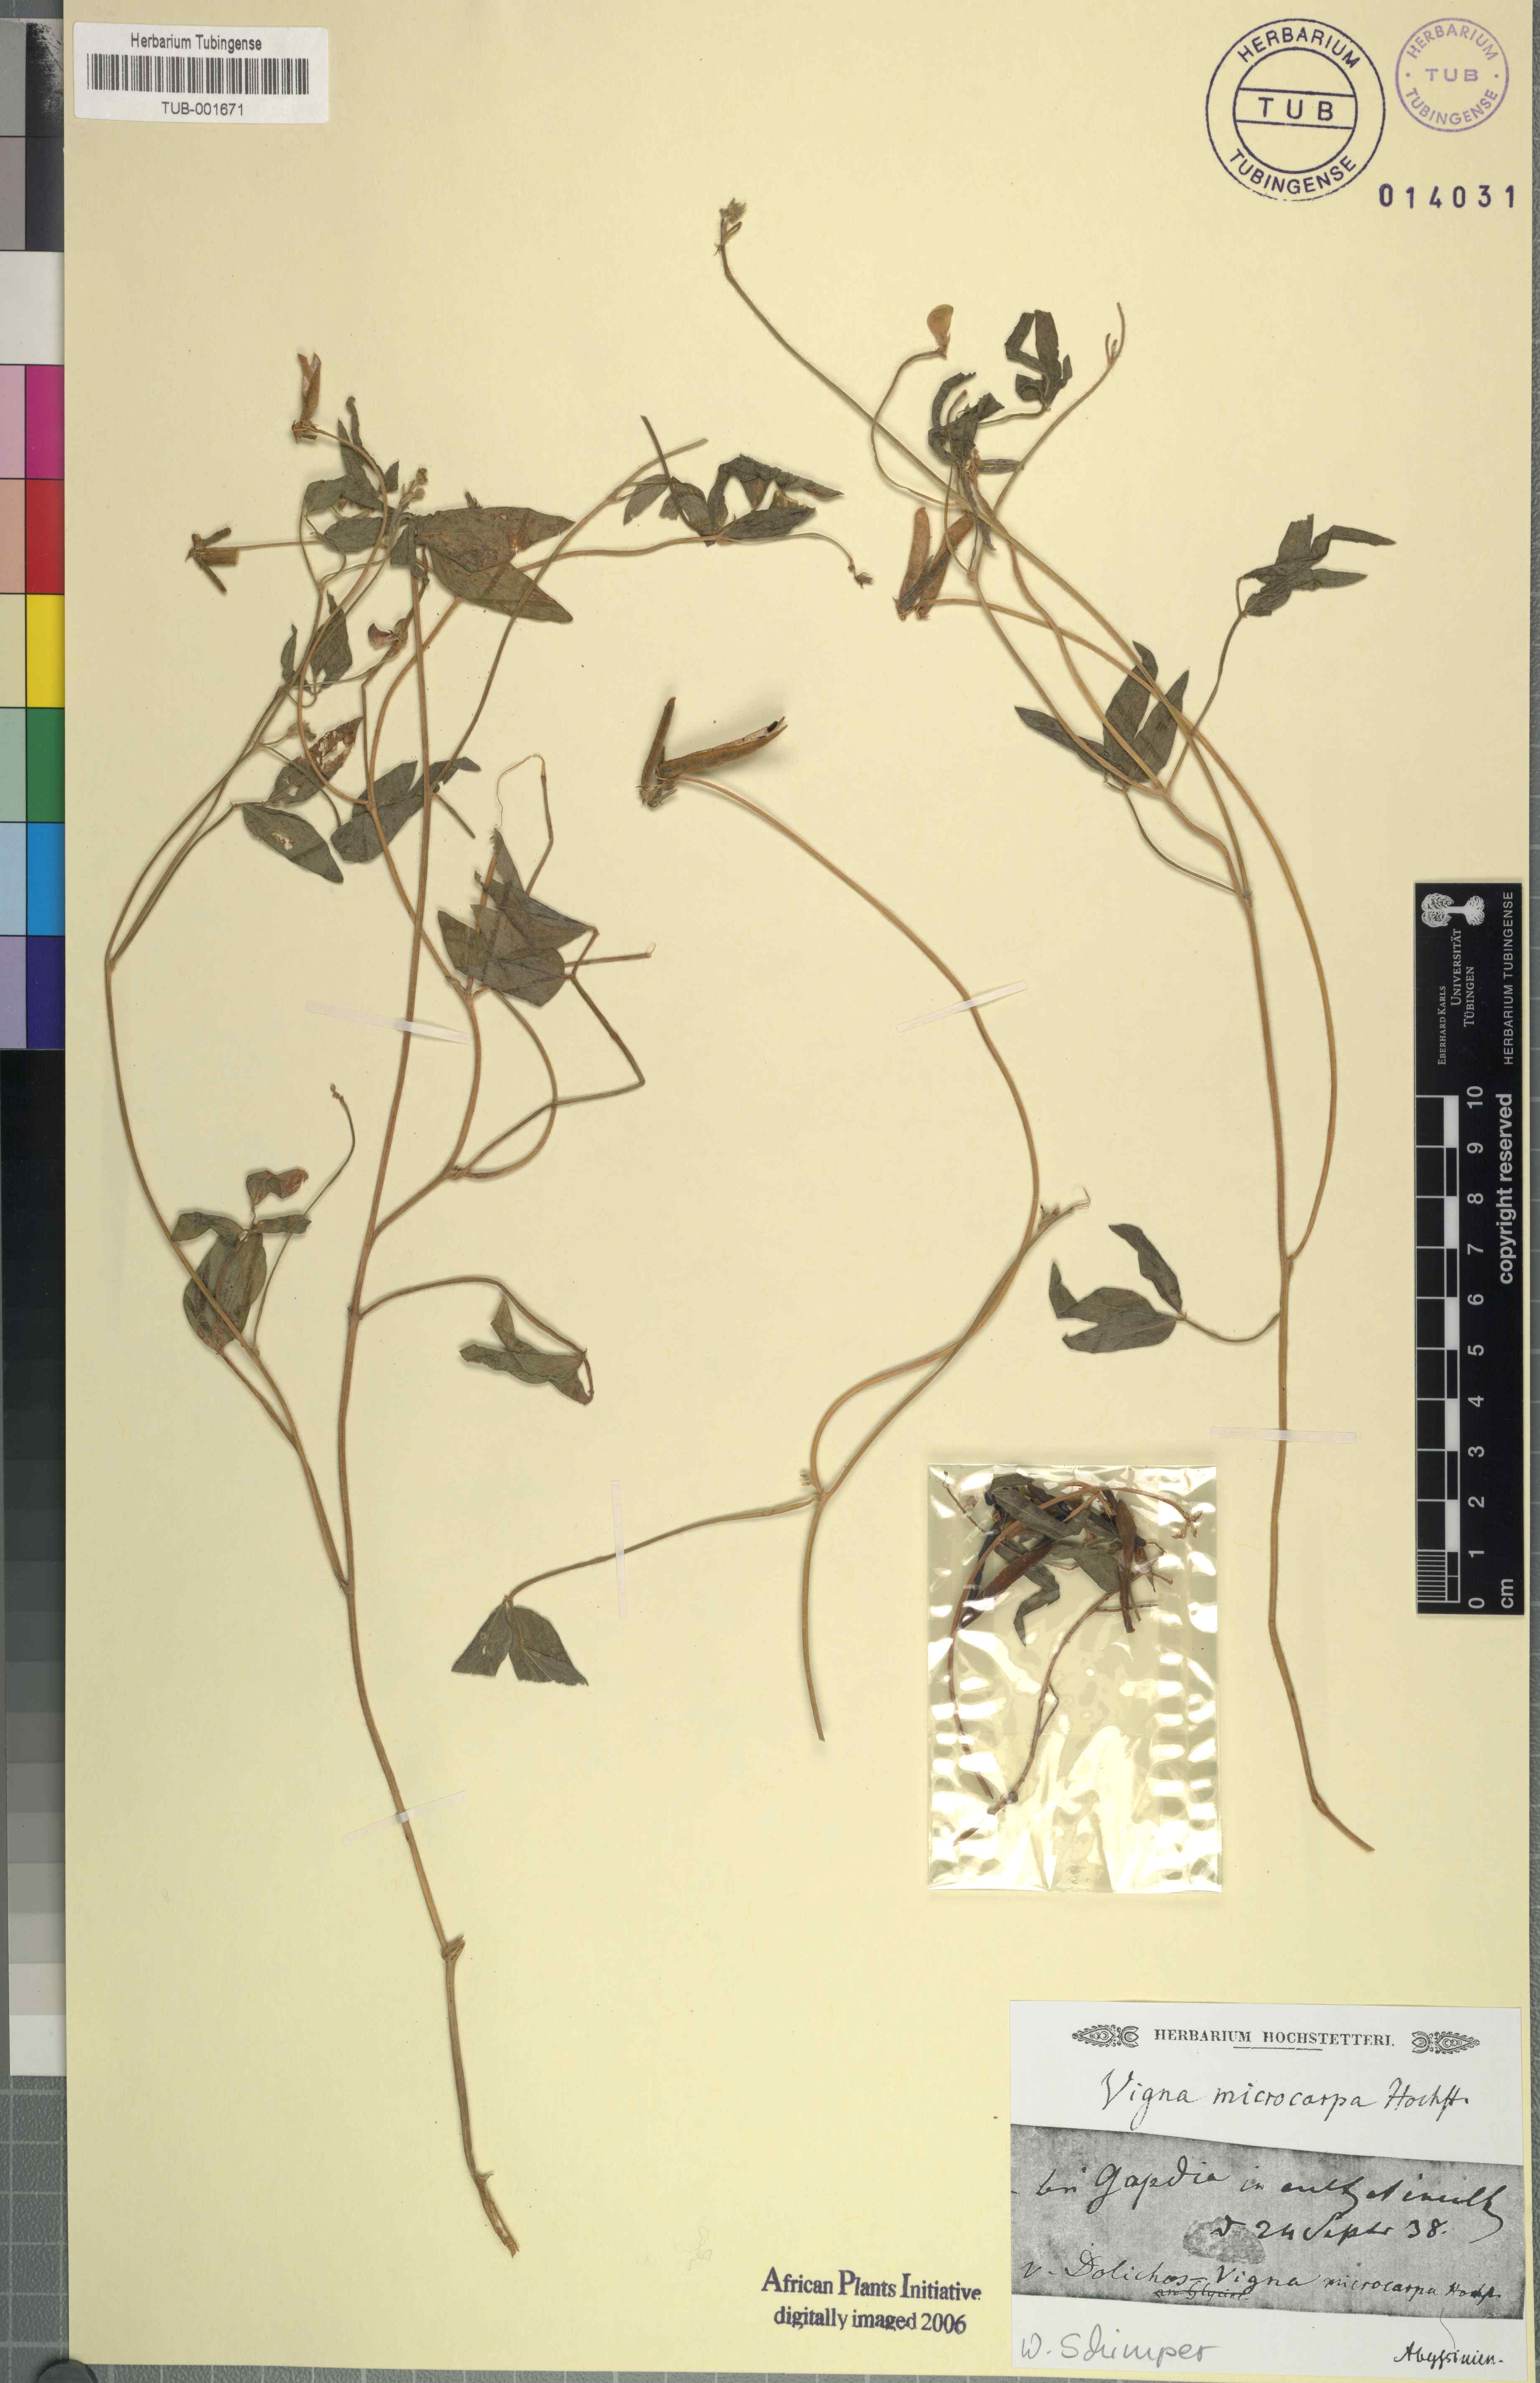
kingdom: Plantae
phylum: Tracheophyta
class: Magnoliopsida
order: Fabales
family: Fabaceae
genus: Vigna
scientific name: Vigna
